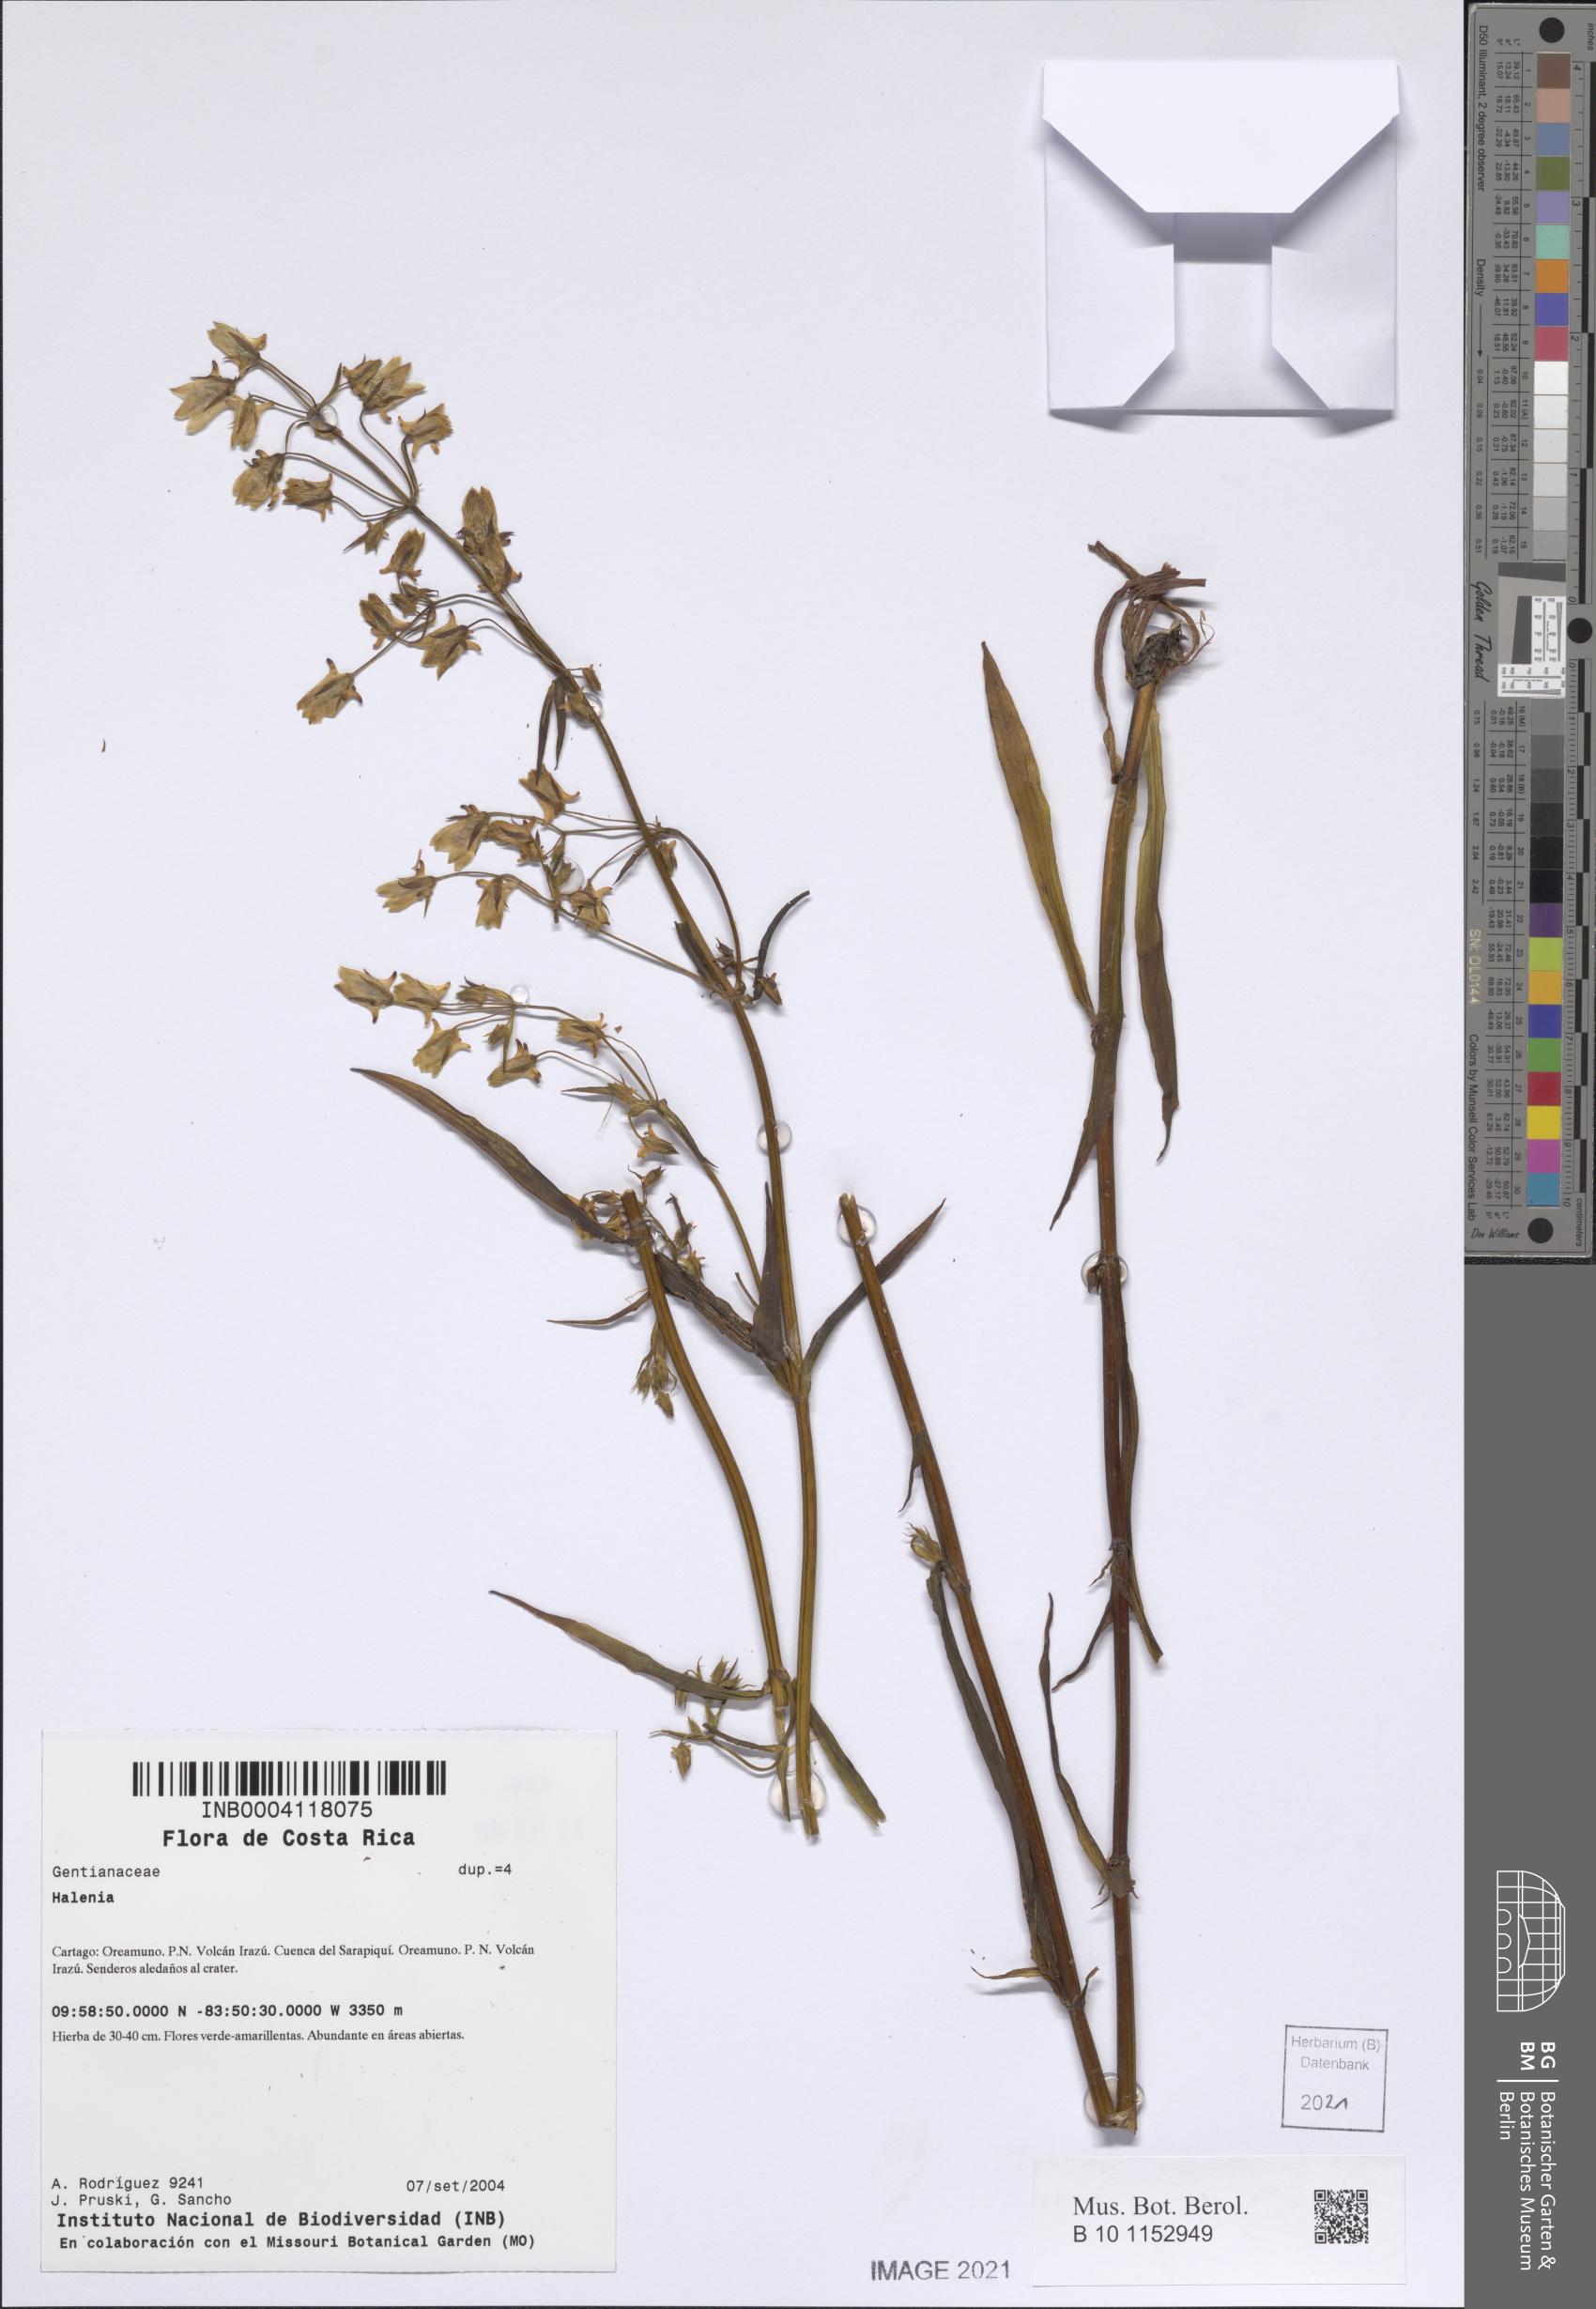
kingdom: Plantae
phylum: Tracheophyta
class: Magnoliopsida
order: Gentianales
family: Gentianaceae
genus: Halenia
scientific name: Halenia rhyacophila
